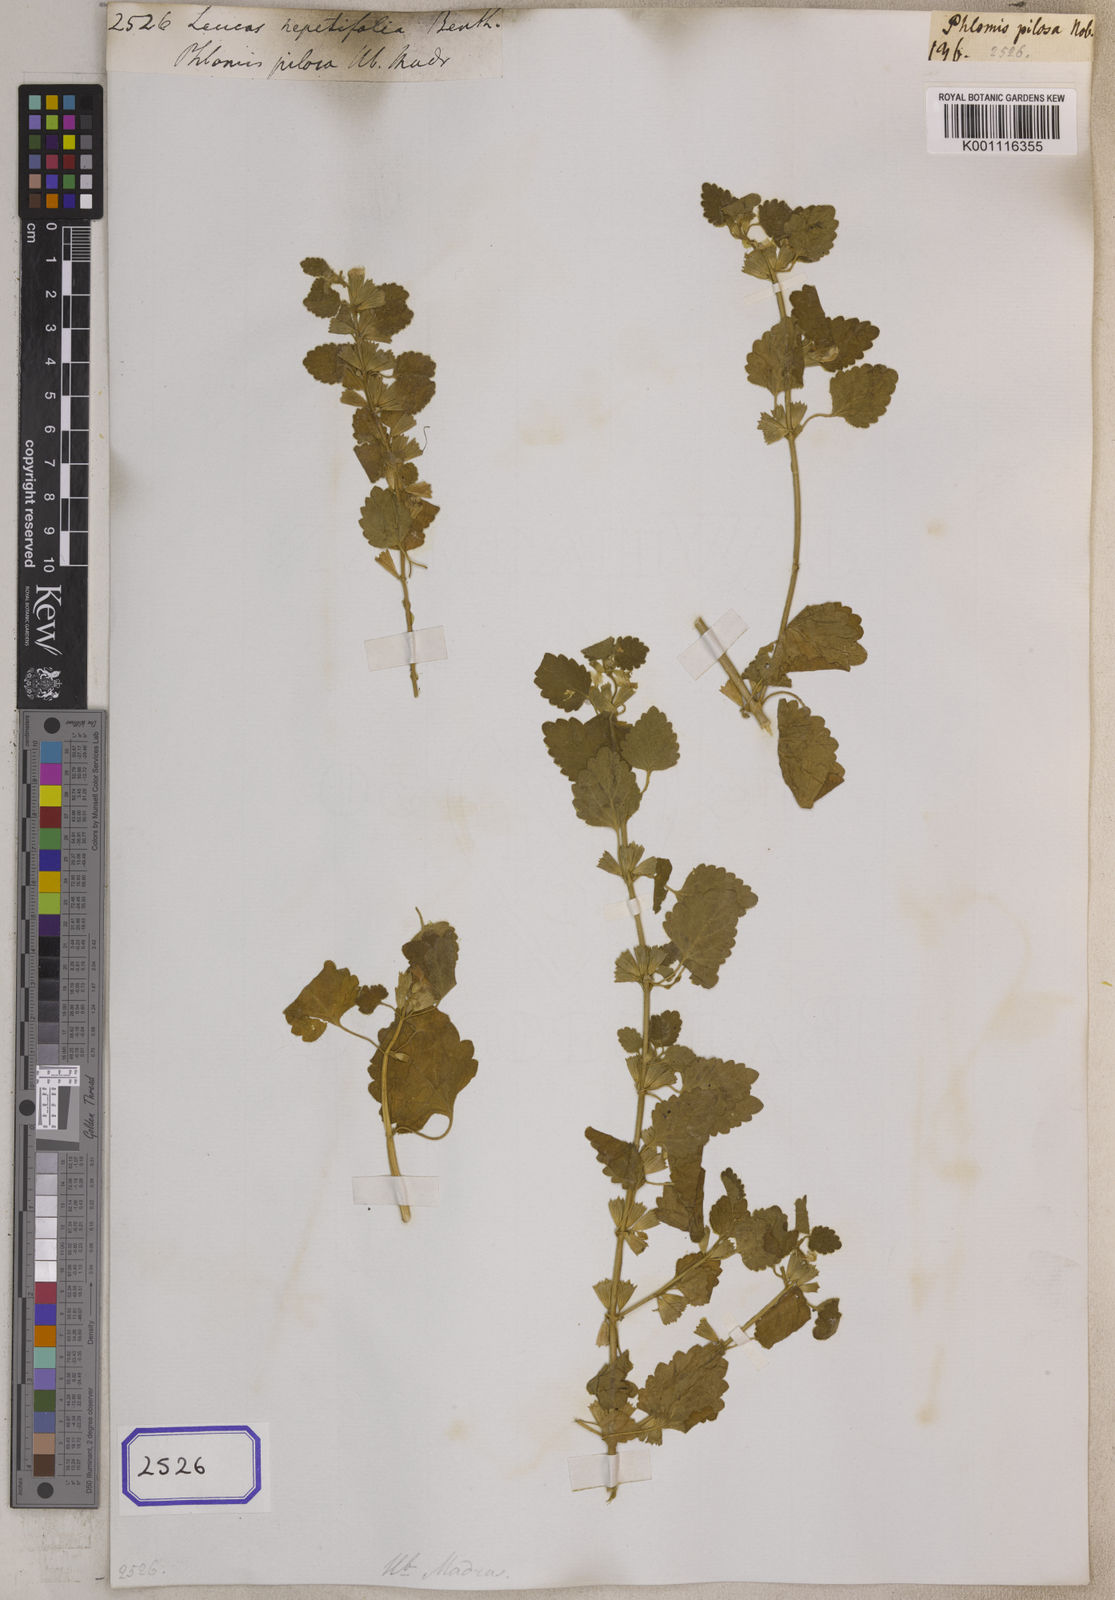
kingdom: Plantae
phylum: Tracheophyta
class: Magnoliopsida
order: Lamiales
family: Lamiaceae
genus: Leucas
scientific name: Leucas nepetifolia
